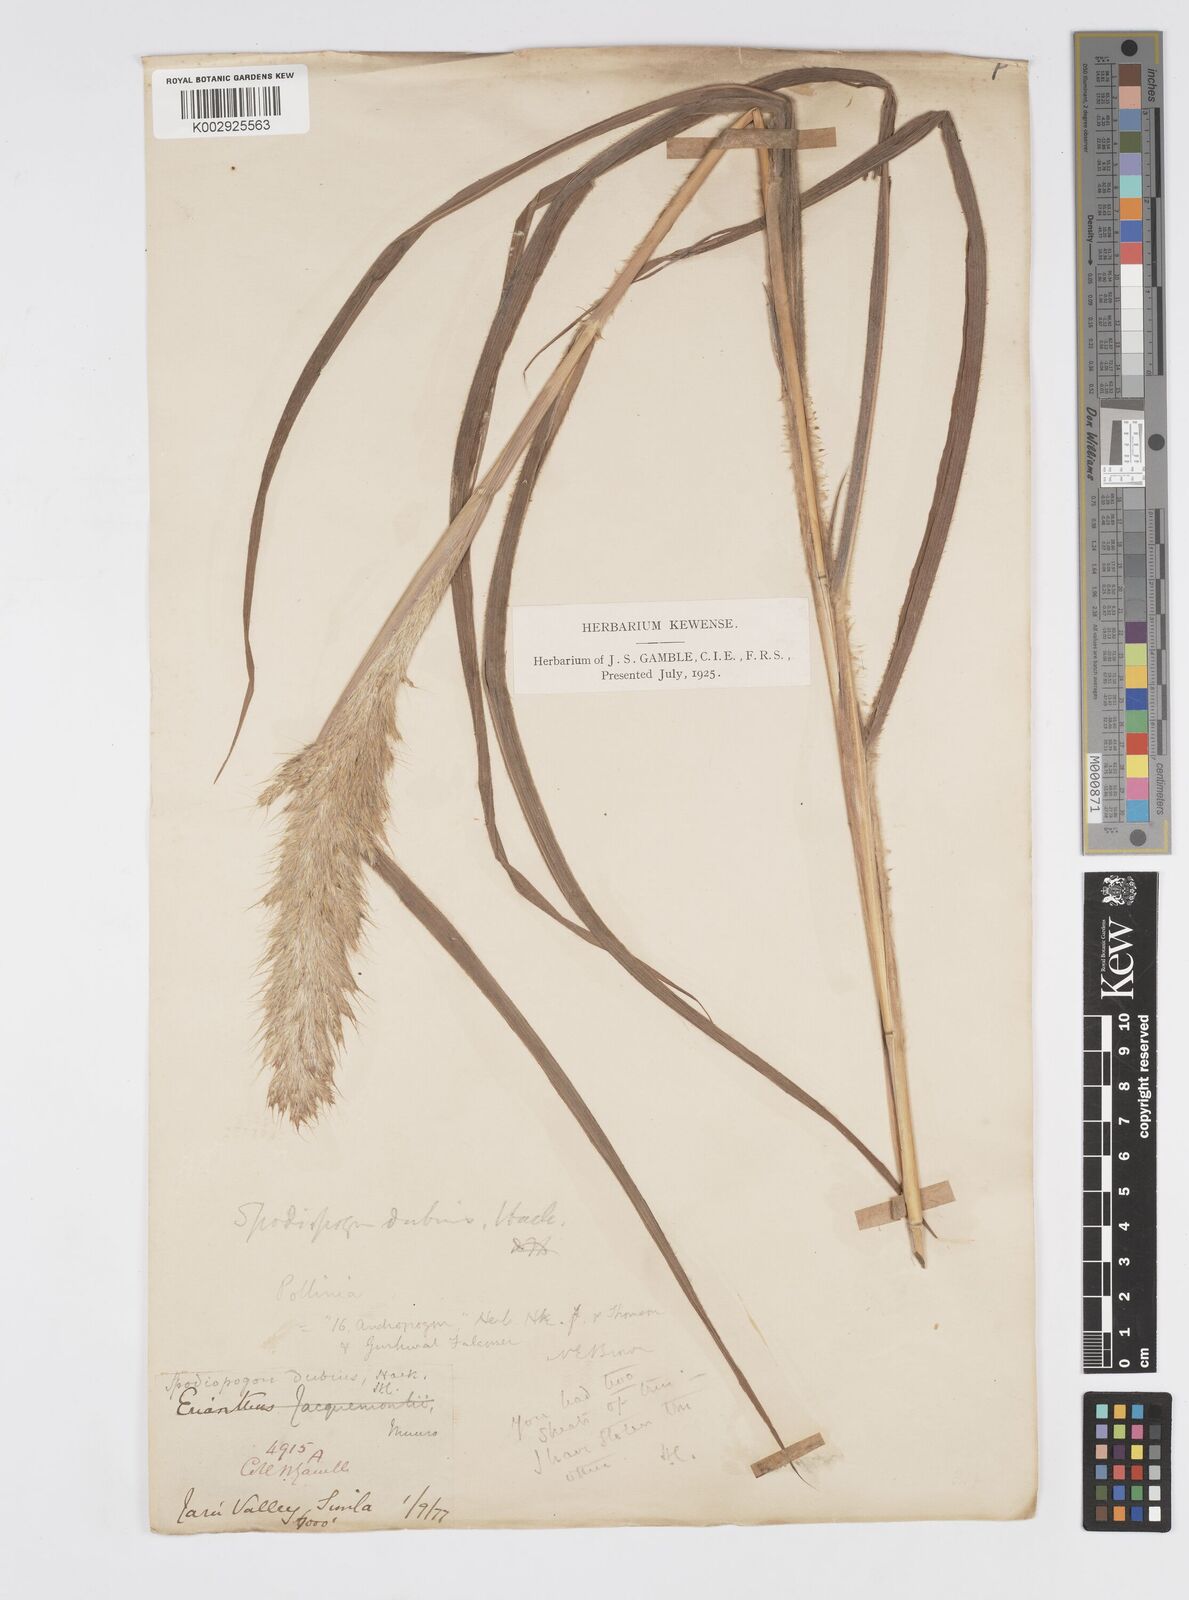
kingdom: Plantae
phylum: Tracheophyta
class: Liliopsida
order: Poales
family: Poaceae
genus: Spodiopogon
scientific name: Spodiopogon dubius
